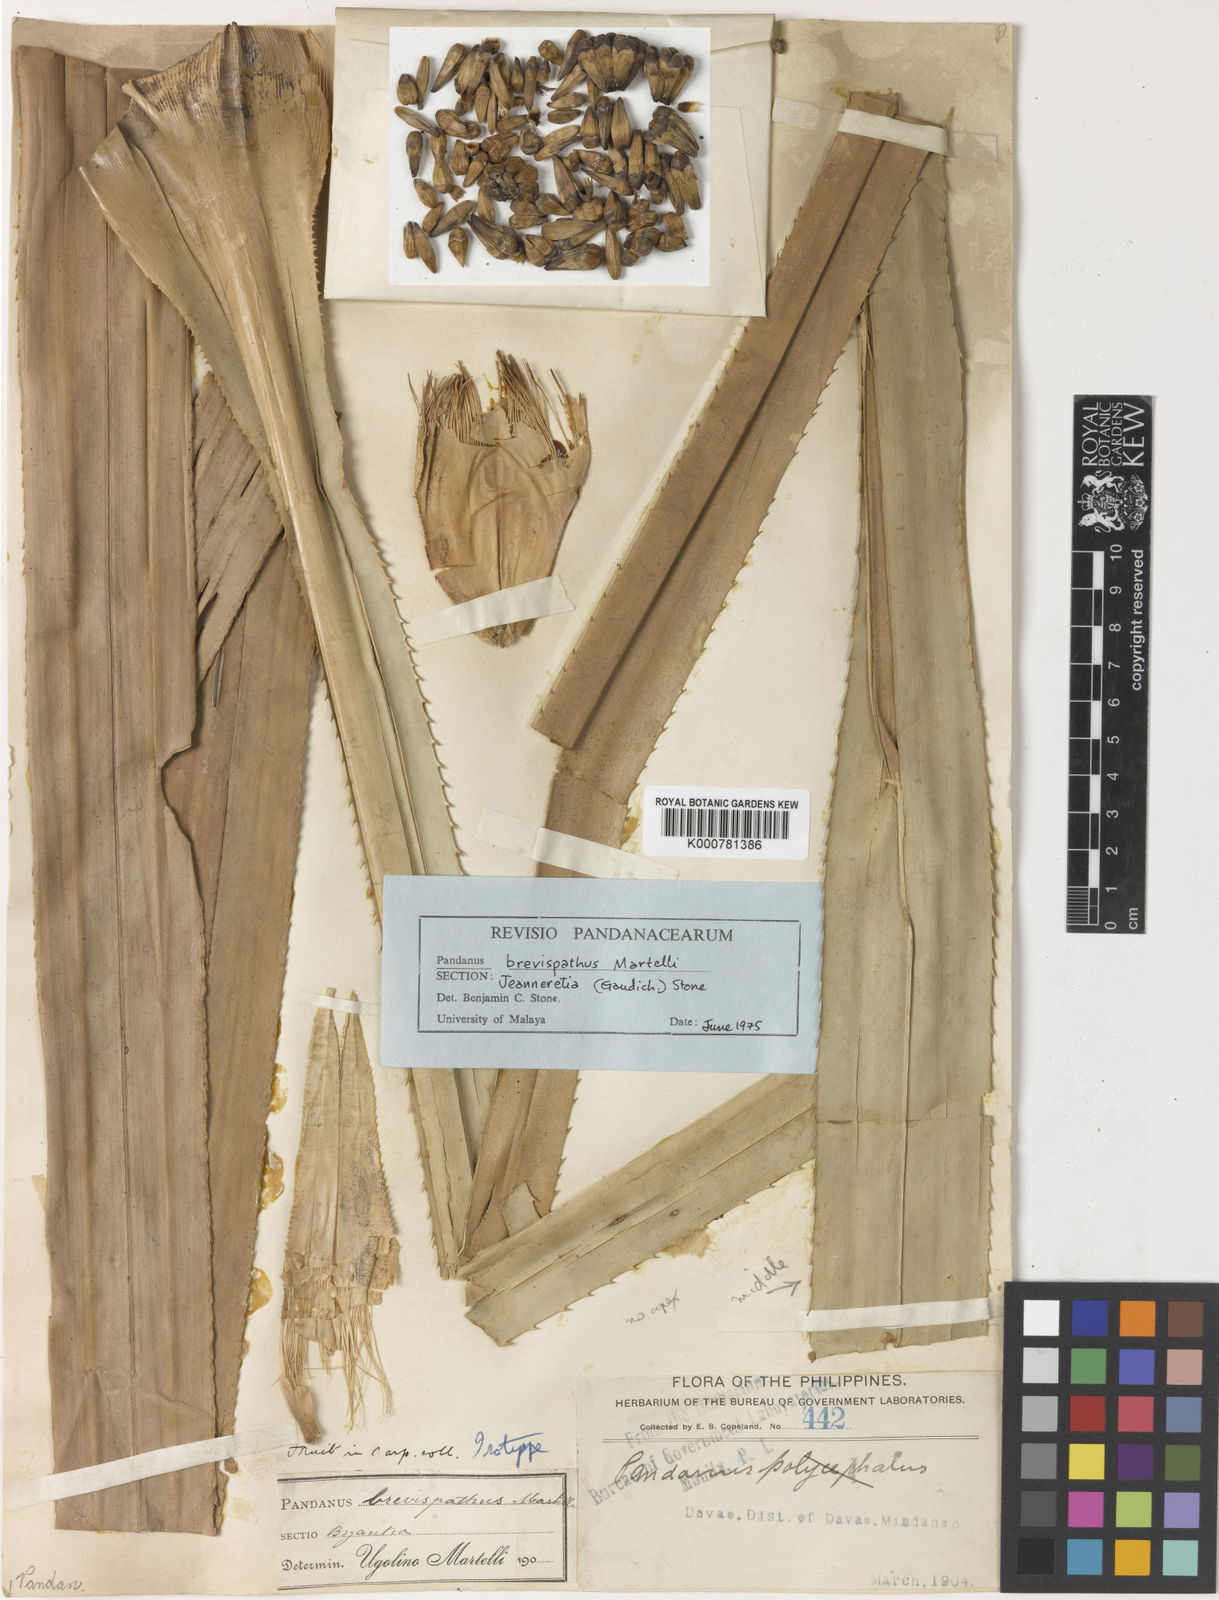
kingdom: Plantae
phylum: Tracheophyta
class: Liliopsida
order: Pandanales
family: Pandanaceae
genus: Pandanus
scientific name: Pandanus
